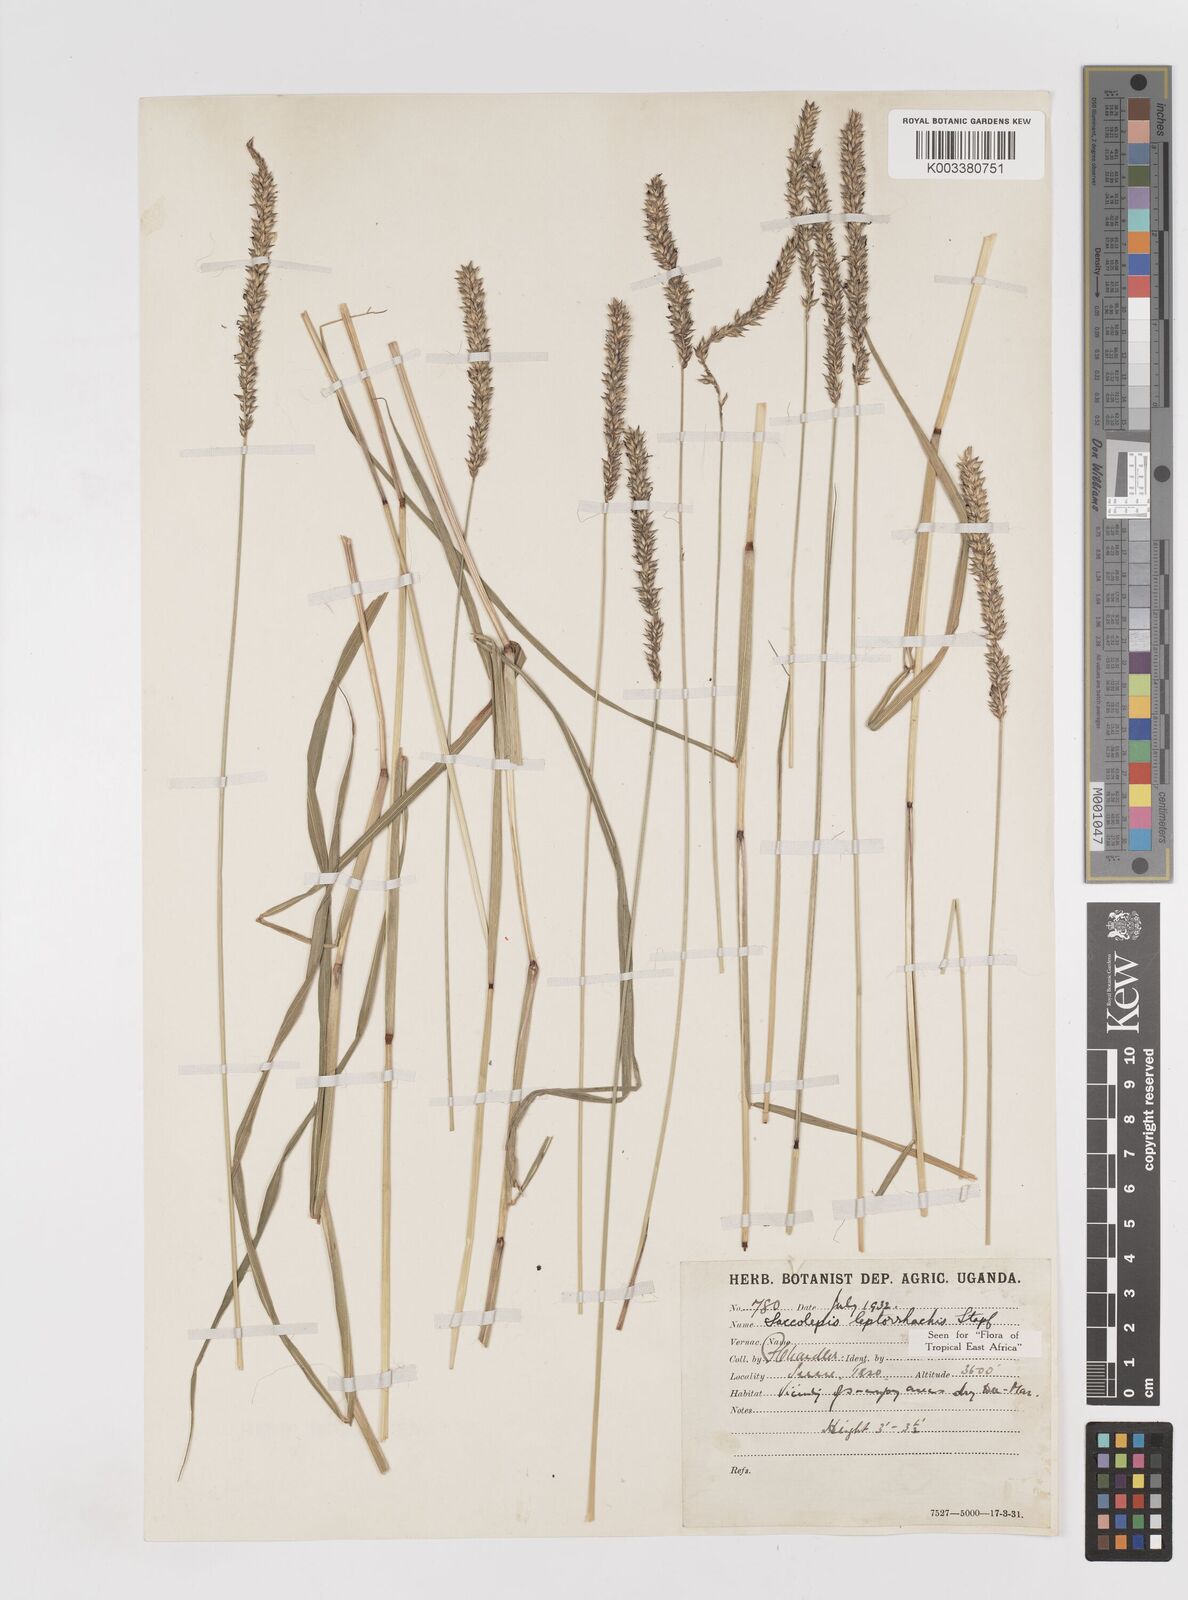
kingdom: Plantae
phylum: Tracheophyta
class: Liliopsida
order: Poales
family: Poaceae
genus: Sacciolepis
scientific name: Sacciolepis leptorrhachis
